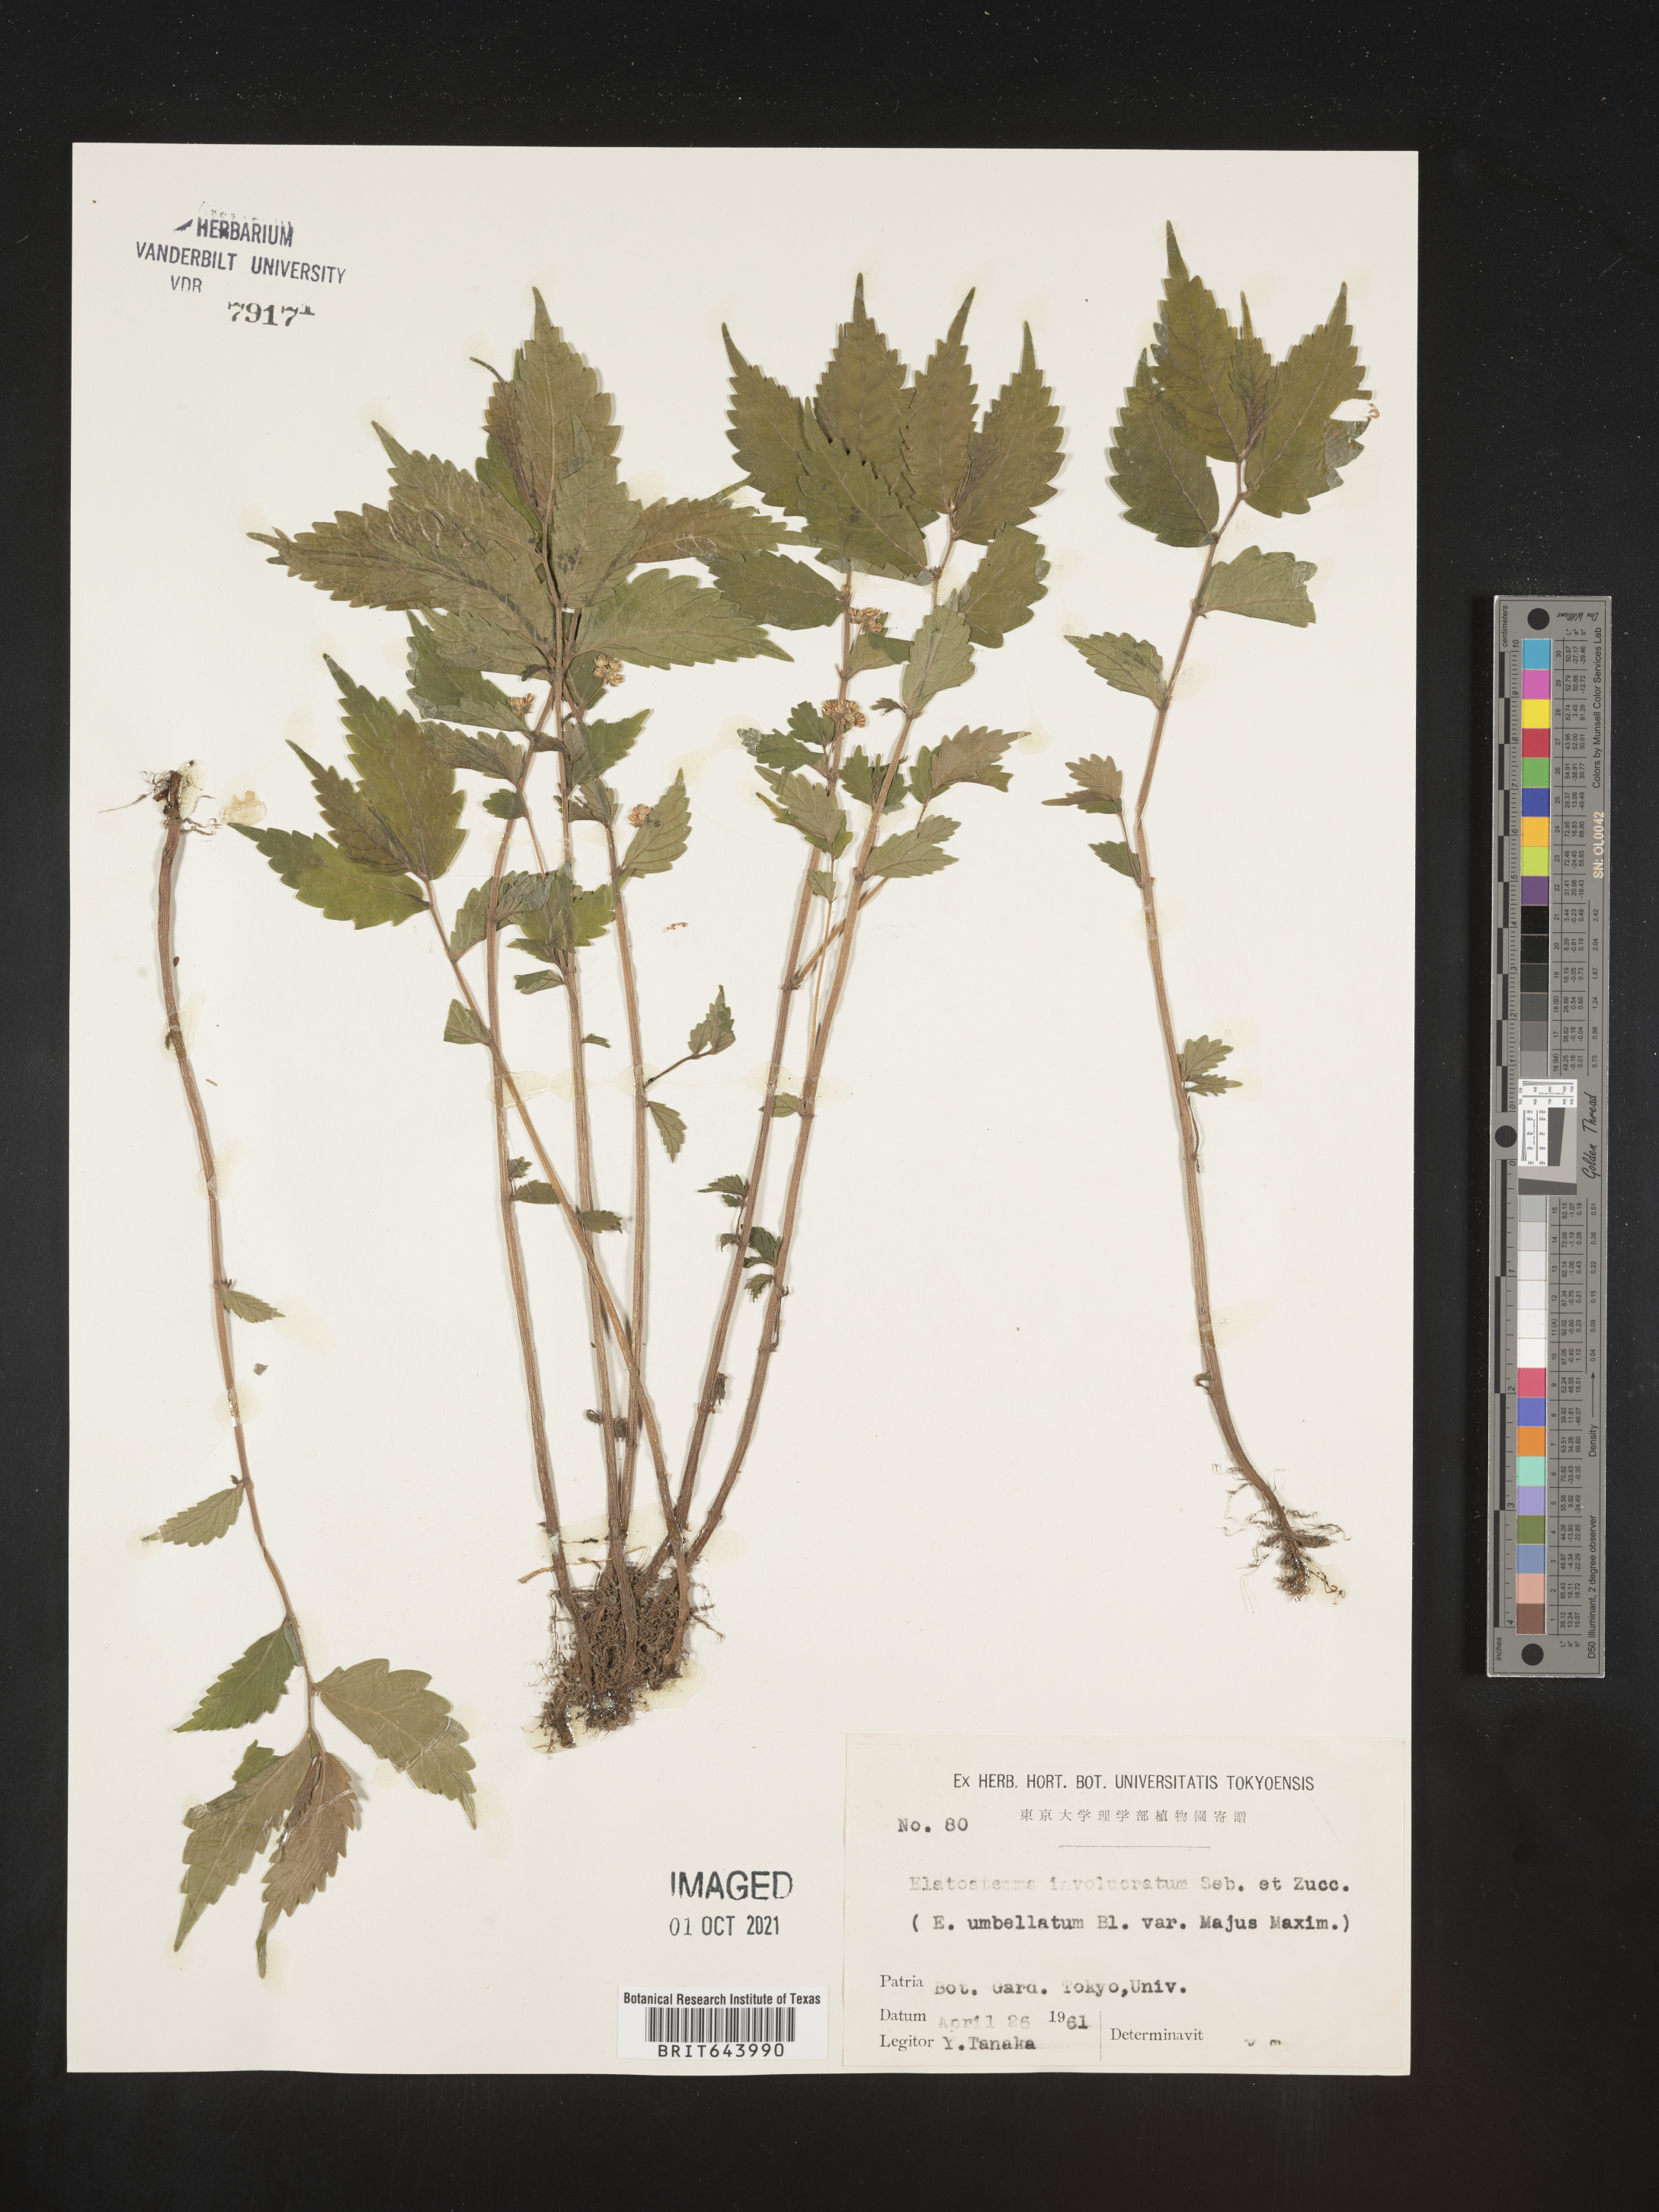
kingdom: Plantae
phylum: Tracheophyta
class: Magnoliopsida
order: Rosales
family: Urticaceae
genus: Elatostema
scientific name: Elatostema
